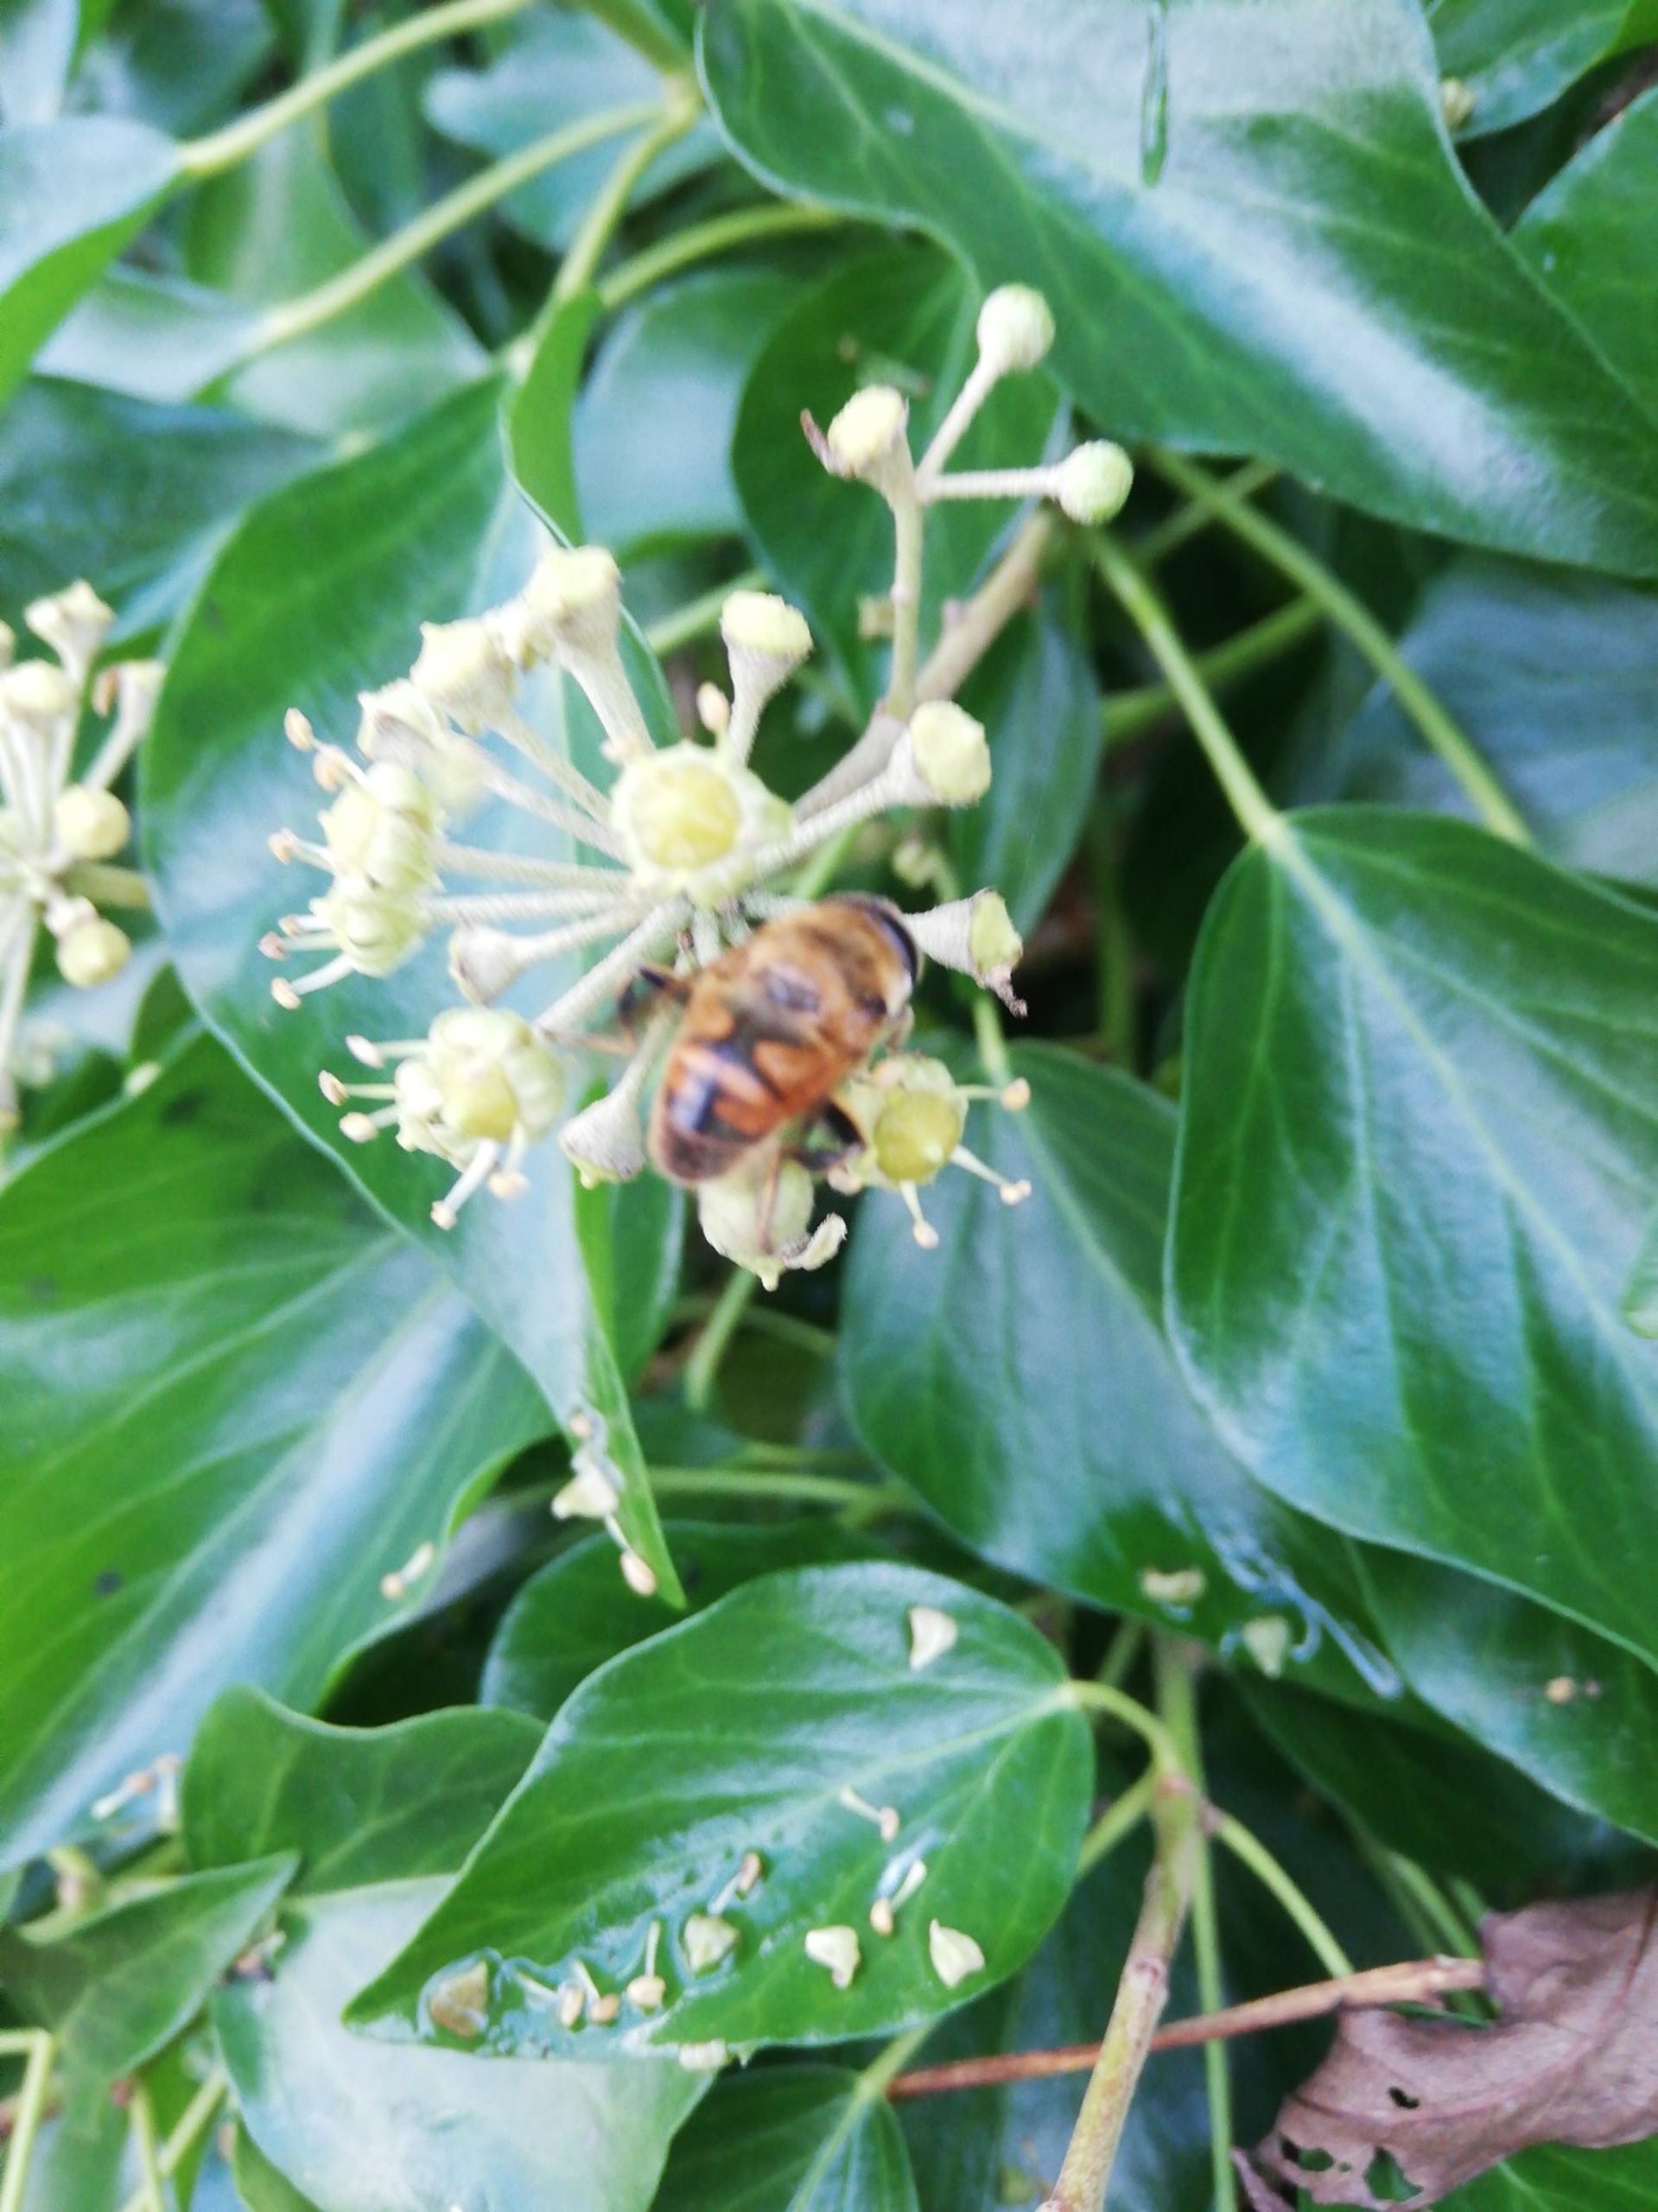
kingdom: Animalia
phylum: Arthropoda
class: Insecta
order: Diptera
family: Syrphidae
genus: Eristalis
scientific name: Eristalis tenax
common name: Droneflue
